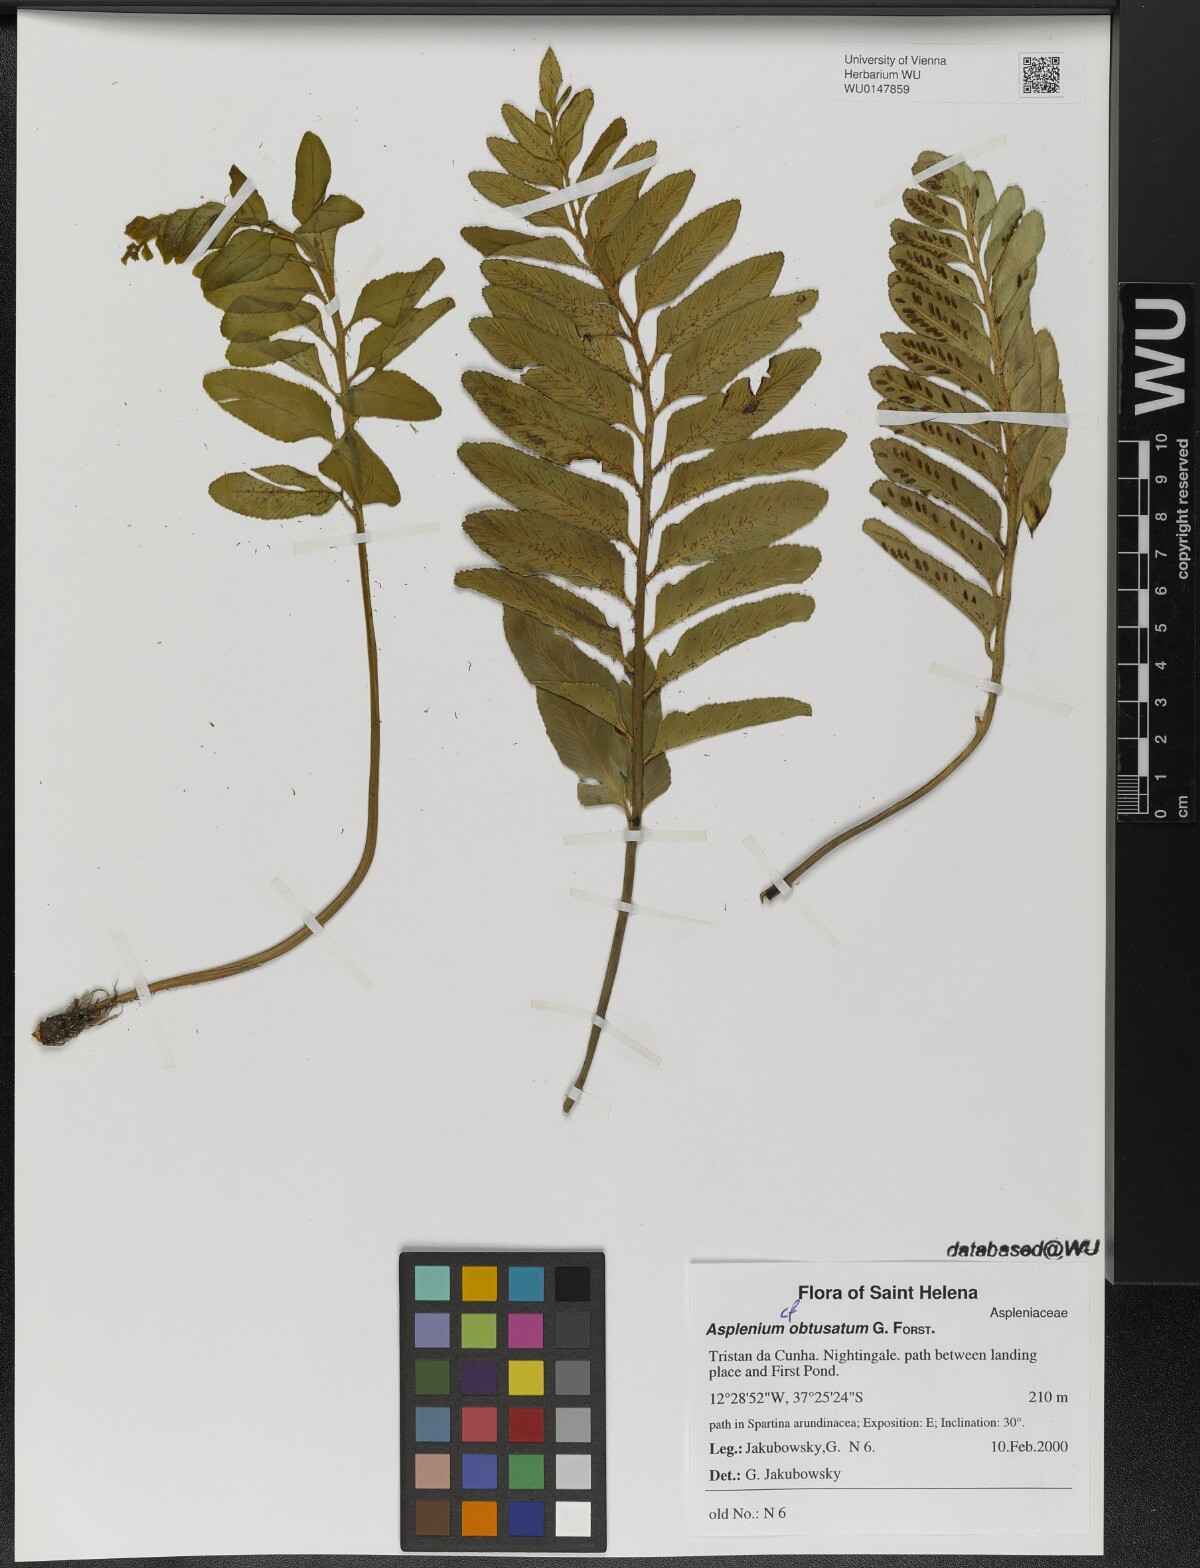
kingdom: Plantae
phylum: Tracheophyta
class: Polypodiopsida
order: Polypodiales
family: Aspleniaceae
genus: Asplenium
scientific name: Asplenium obtusatum
